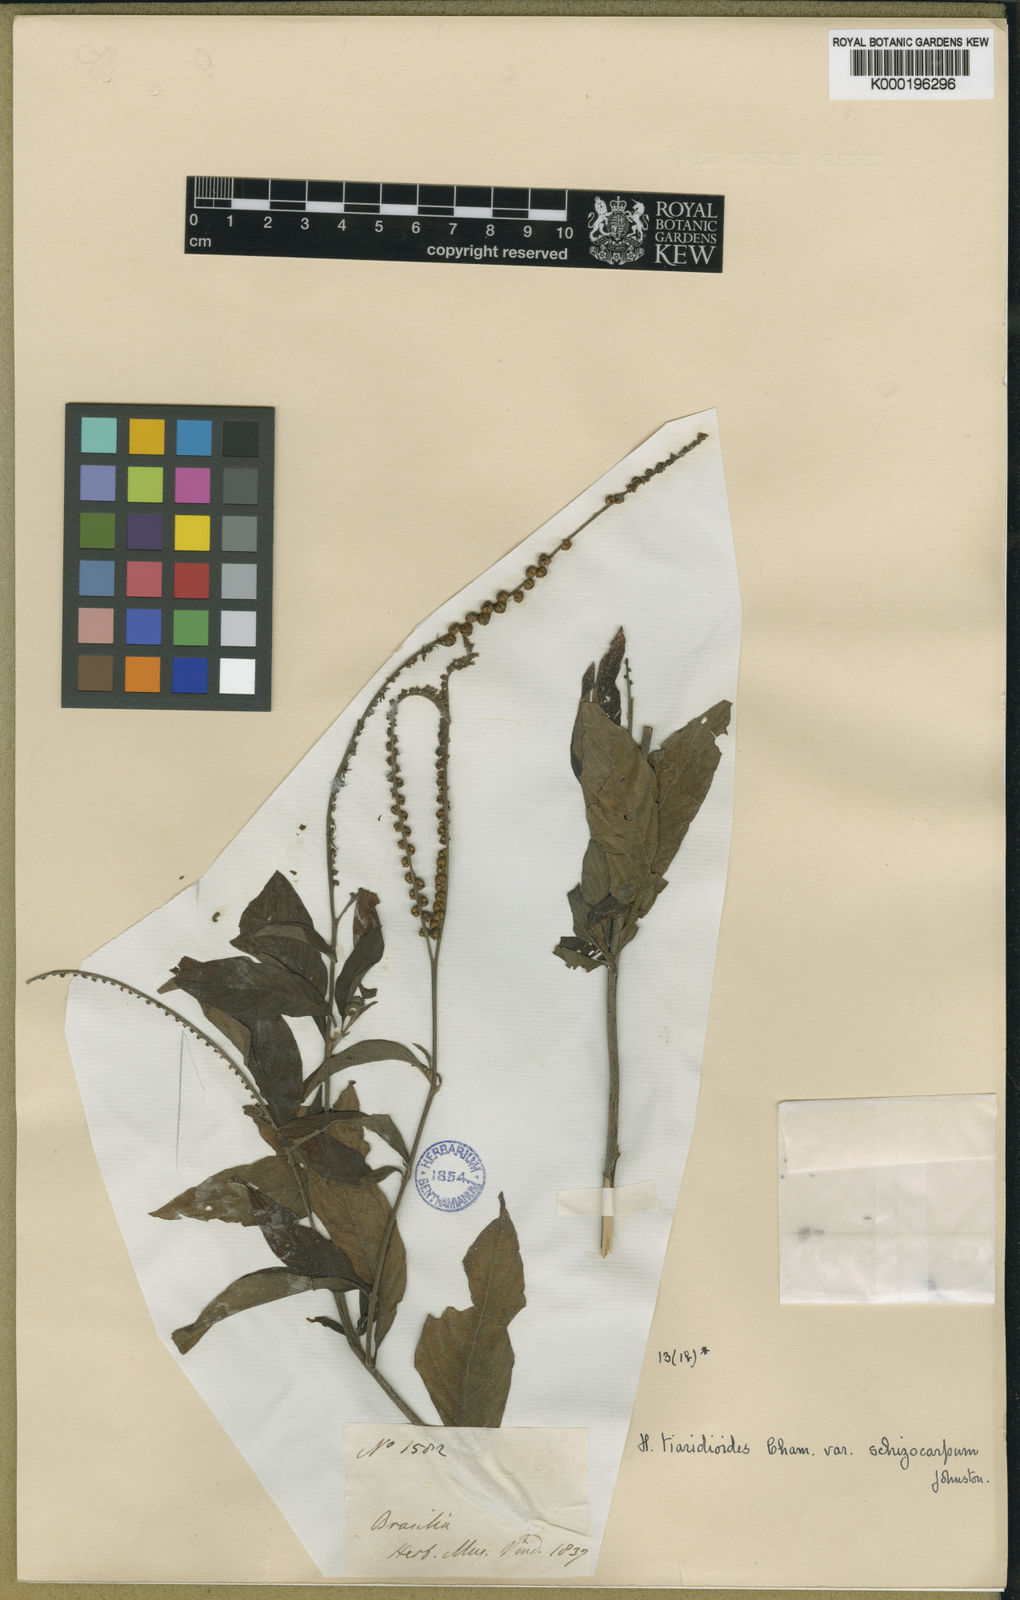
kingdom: Plantae
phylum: Tracheophyta
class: Magnoliopsida
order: Boraginales
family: Heliotropiaceae
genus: Heliotropium
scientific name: Heliotropium transalpinum
